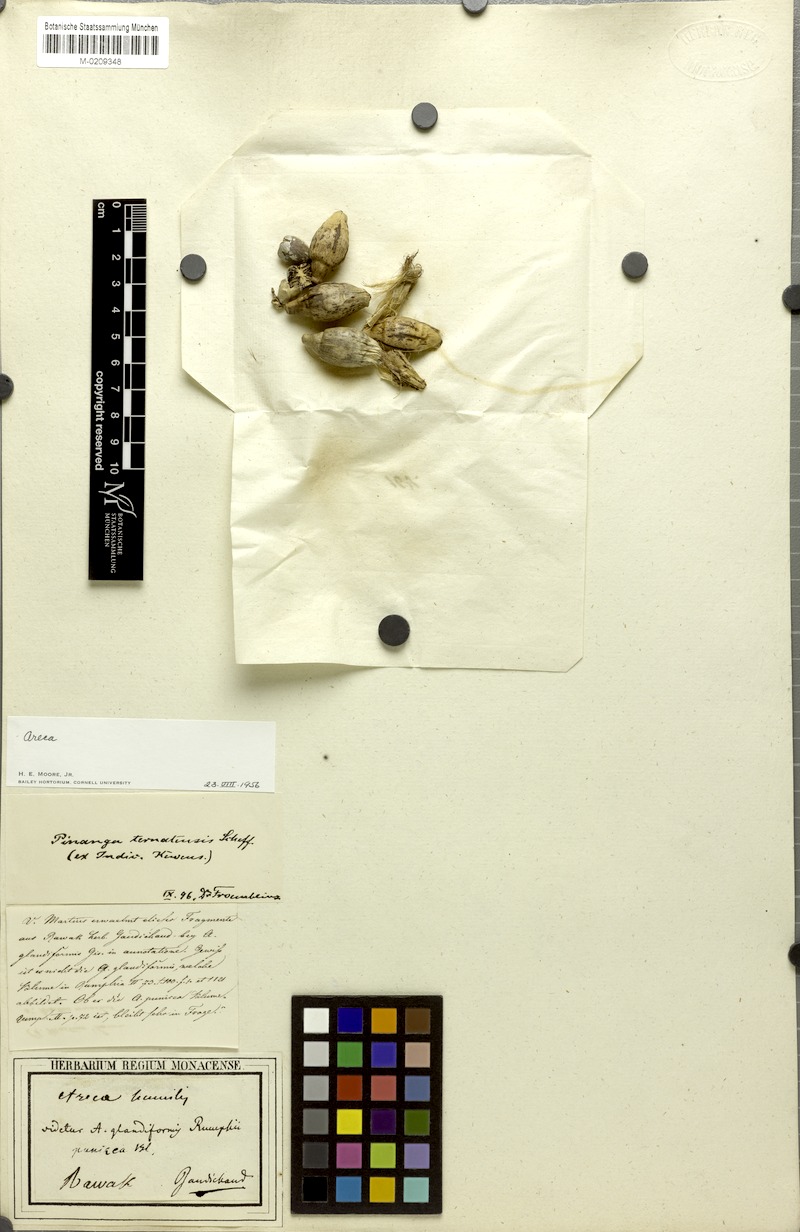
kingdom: Plantae
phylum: Tracheophyta
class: Liliopsida
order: Arecales
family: Arecaceae
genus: Areca
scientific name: Areca
